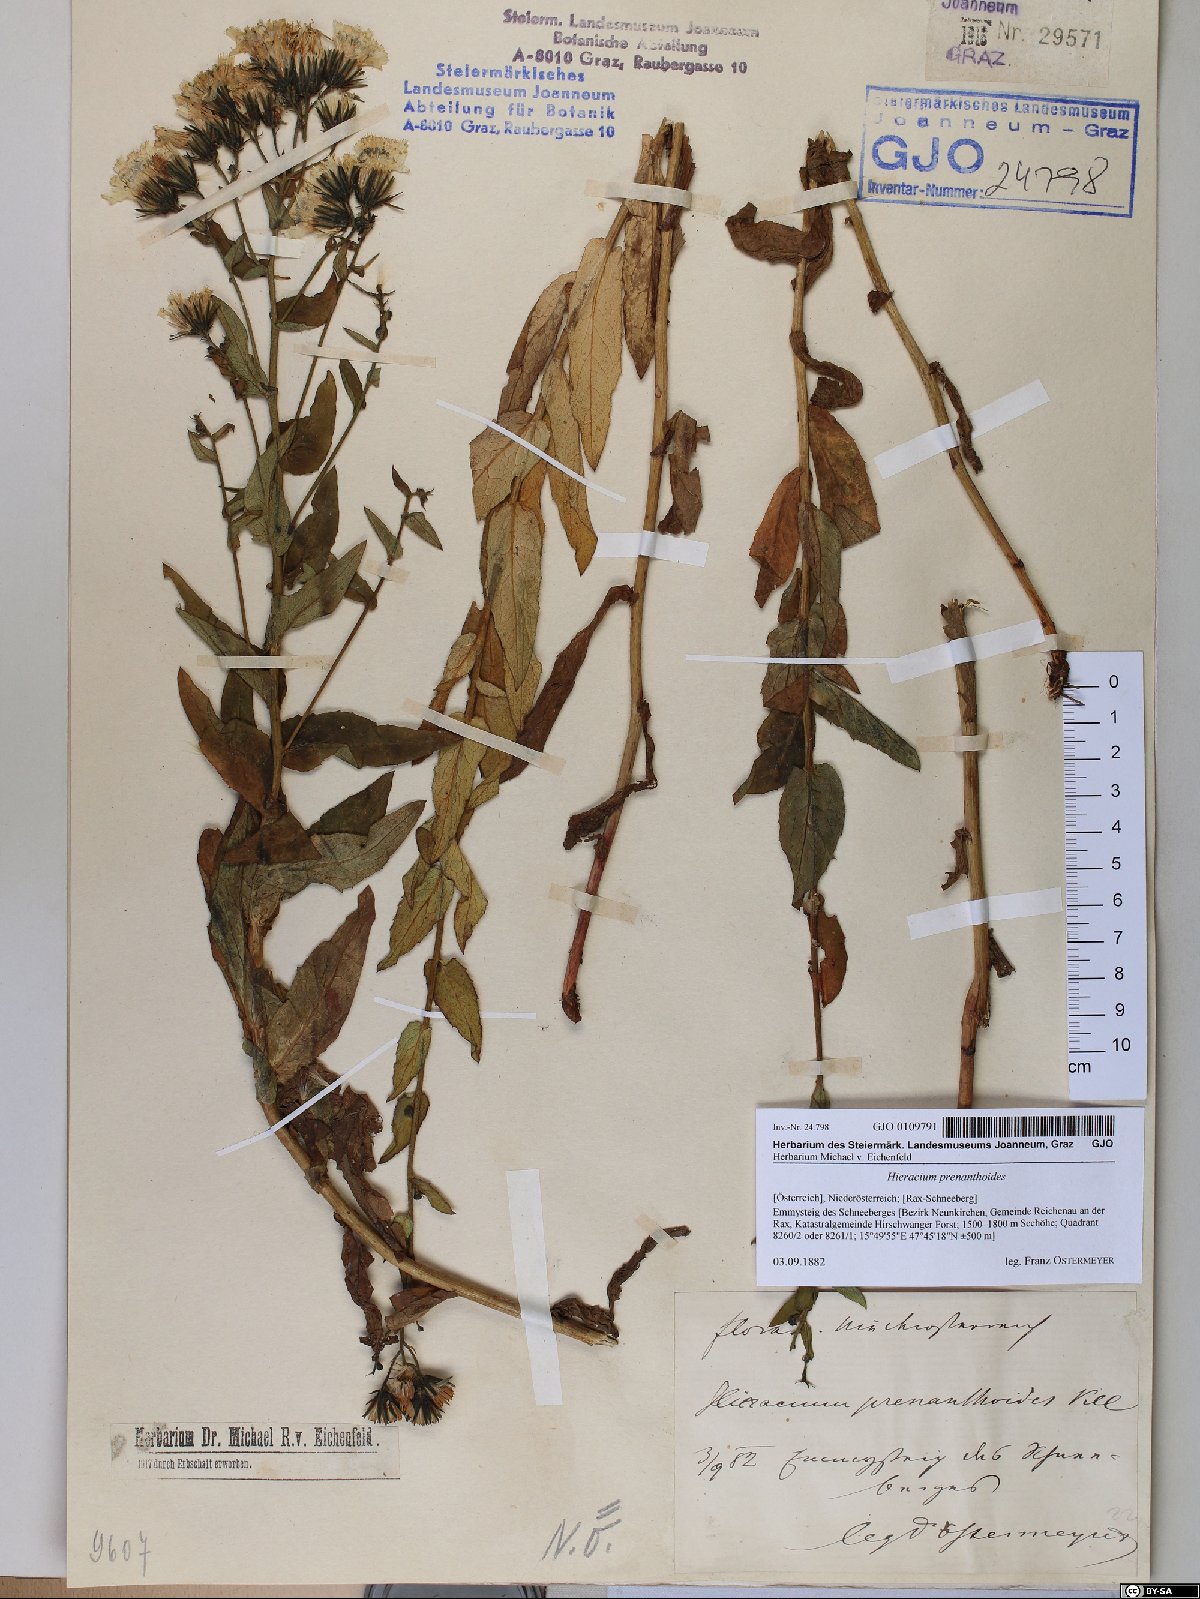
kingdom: Plantae
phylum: Tracheophyta
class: Magnoliopsida
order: Asterales
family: Asteraceae
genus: Hieracium
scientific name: Hieracium prenanthoides
